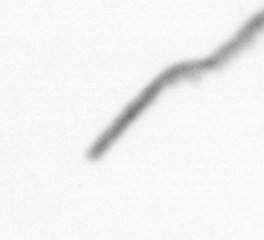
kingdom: Chromista
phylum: Ochrophyta
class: Bacillariophyceae
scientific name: Bacillariophyceae
